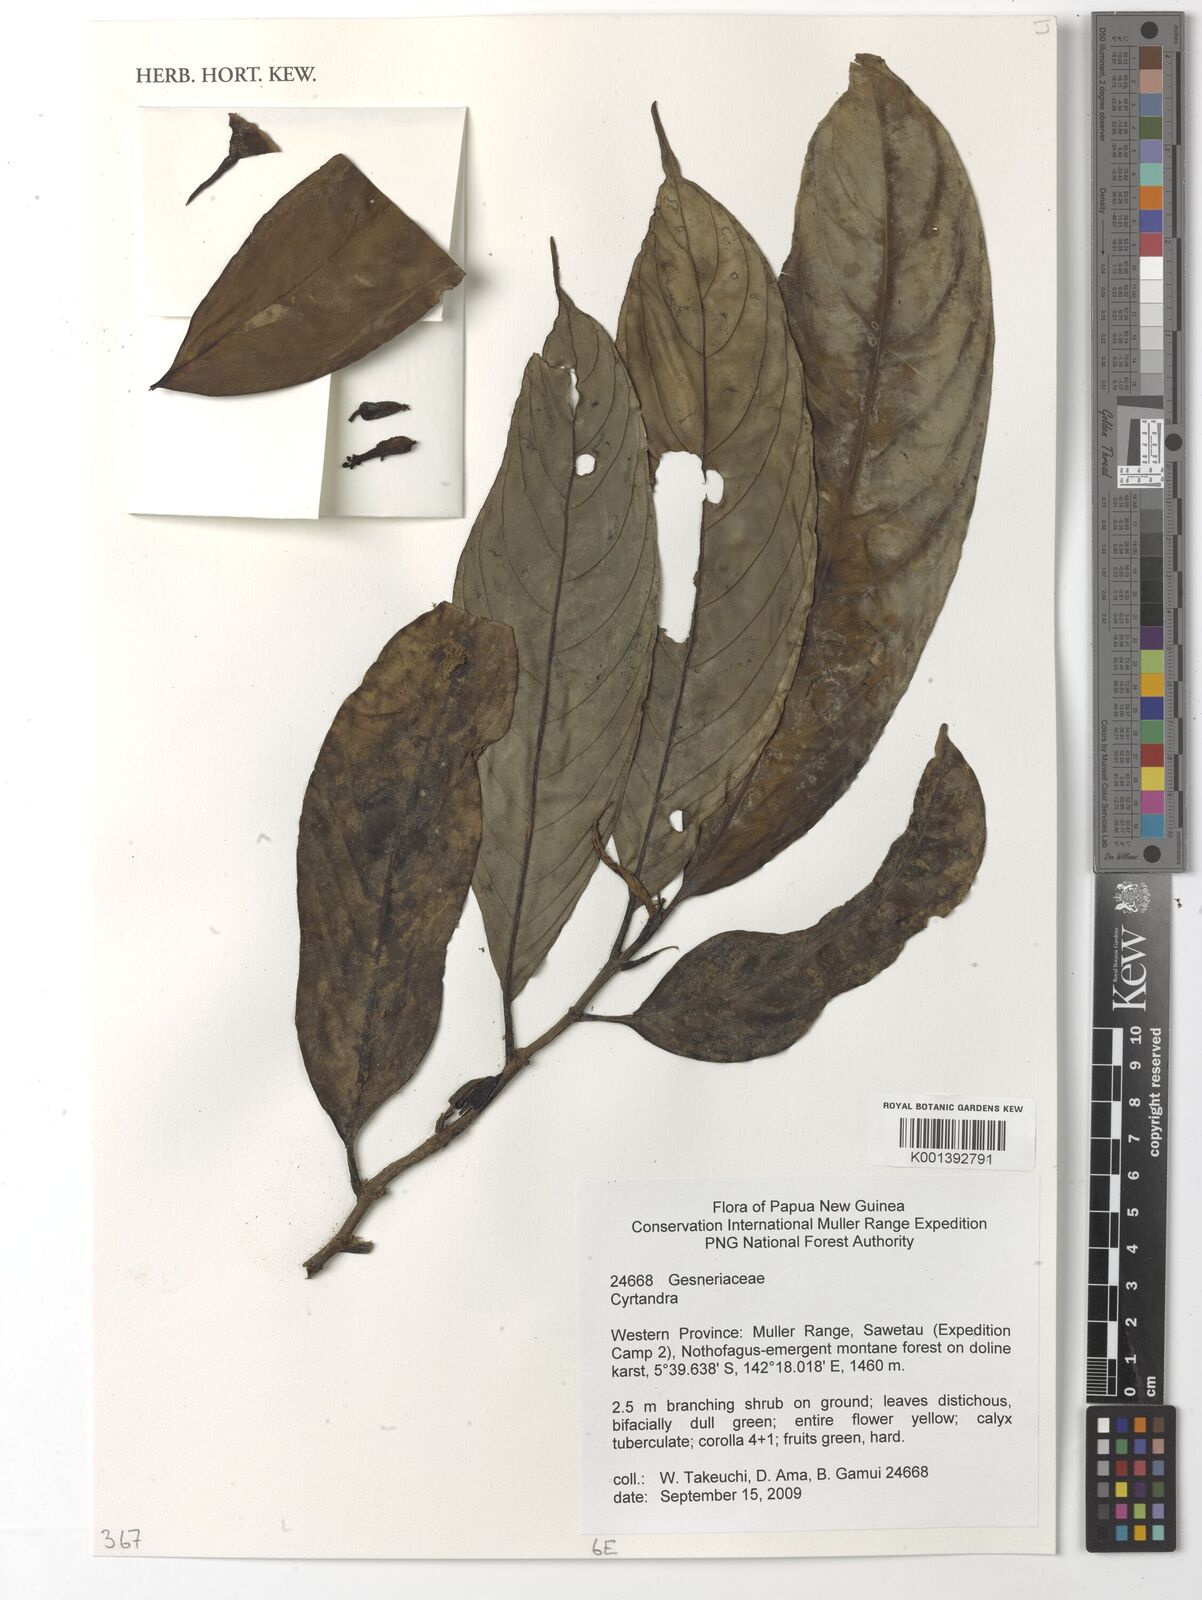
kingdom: Plantae
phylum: Tracheophyta
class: Magnoliopsida
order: Lamiales
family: Gesneriaceae
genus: Cyrtandra
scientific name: Cyrtandra
